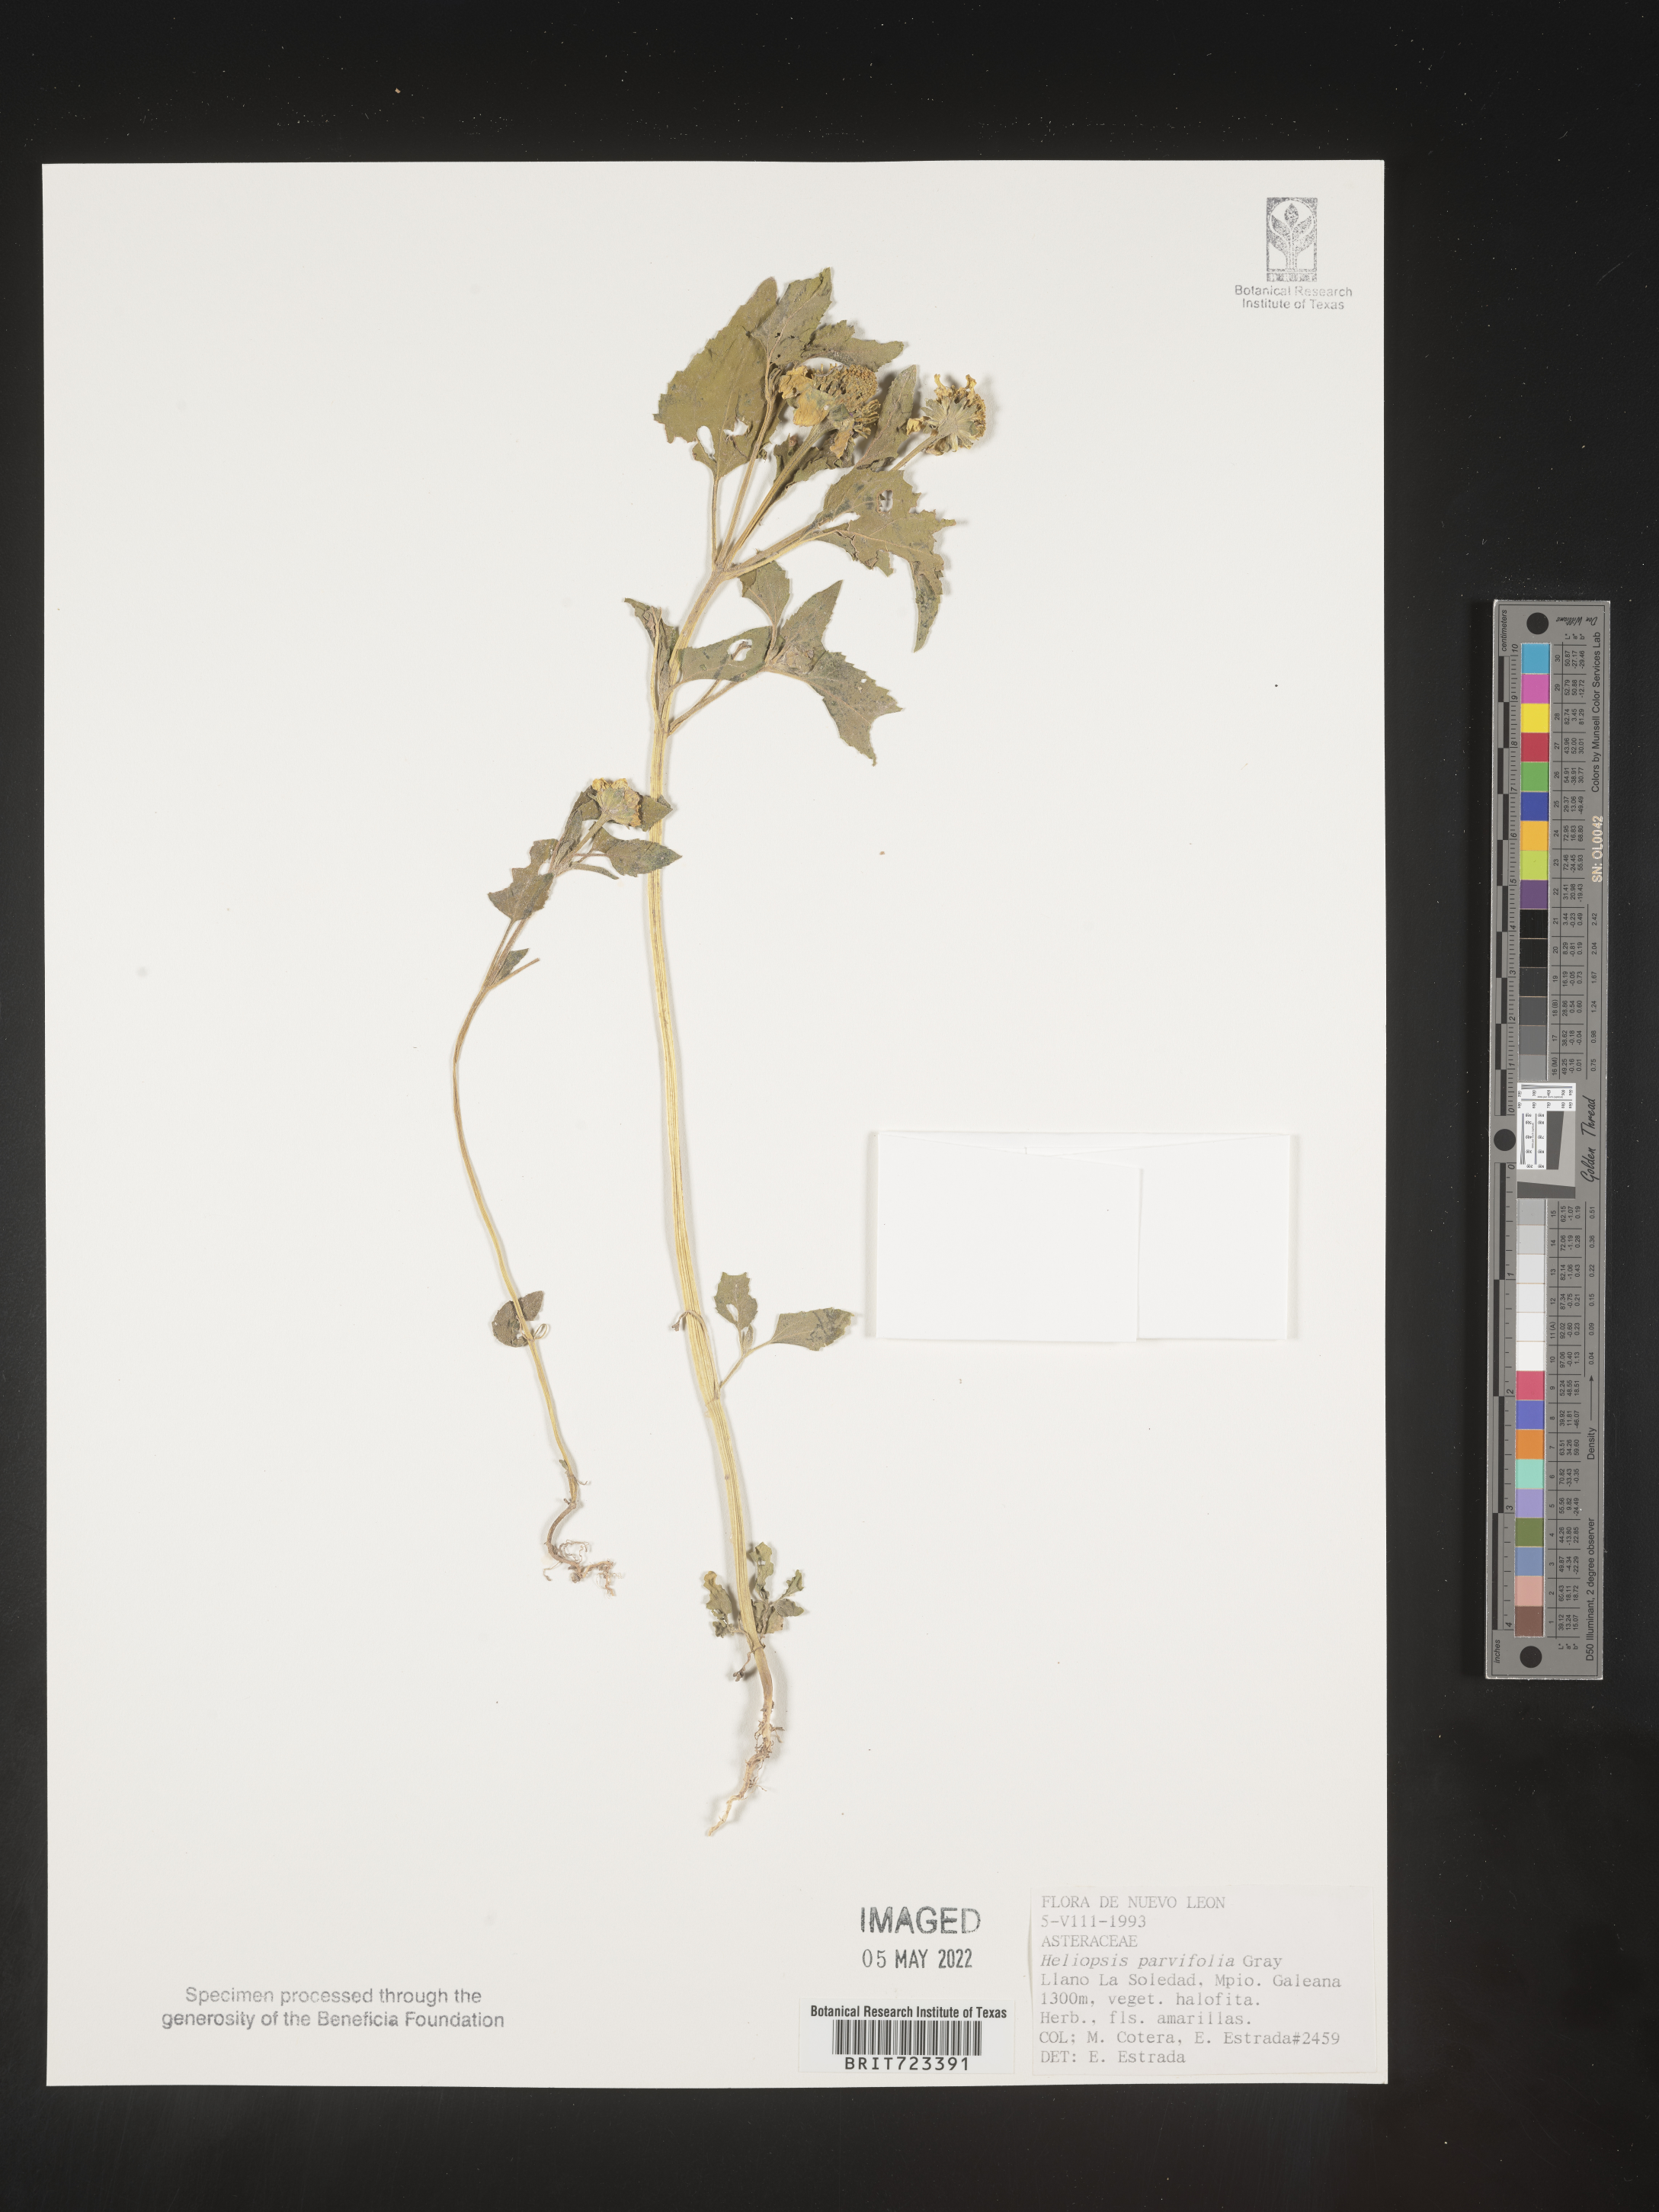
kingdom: Plantae
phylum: Tracheophyta
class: Magnoliopsida
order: Asterales
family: Asteraceae
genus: Heliopsis
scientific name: Heliopsis
